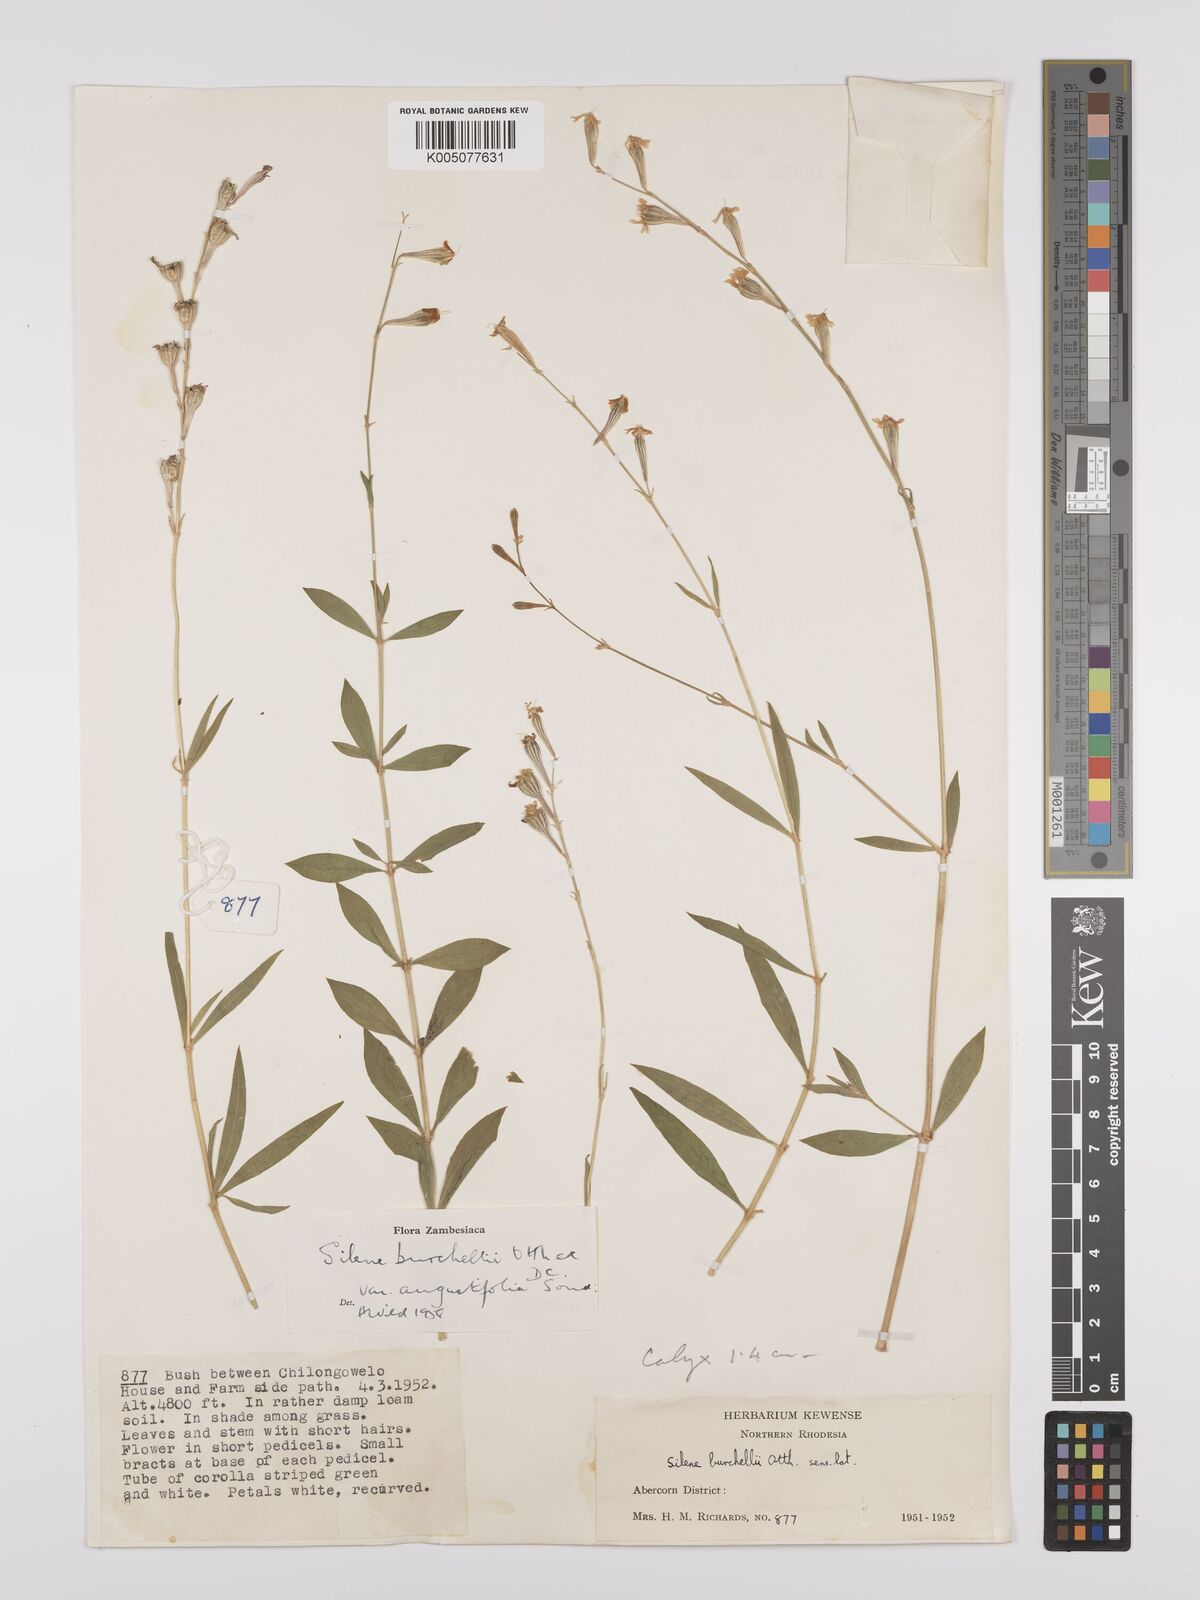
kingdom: Plantae
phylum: Tracheophyta
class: Magnoliopsida
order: Caryophyllales
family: Caryophyllaceae
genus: Silene
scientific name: Silene burchellii
